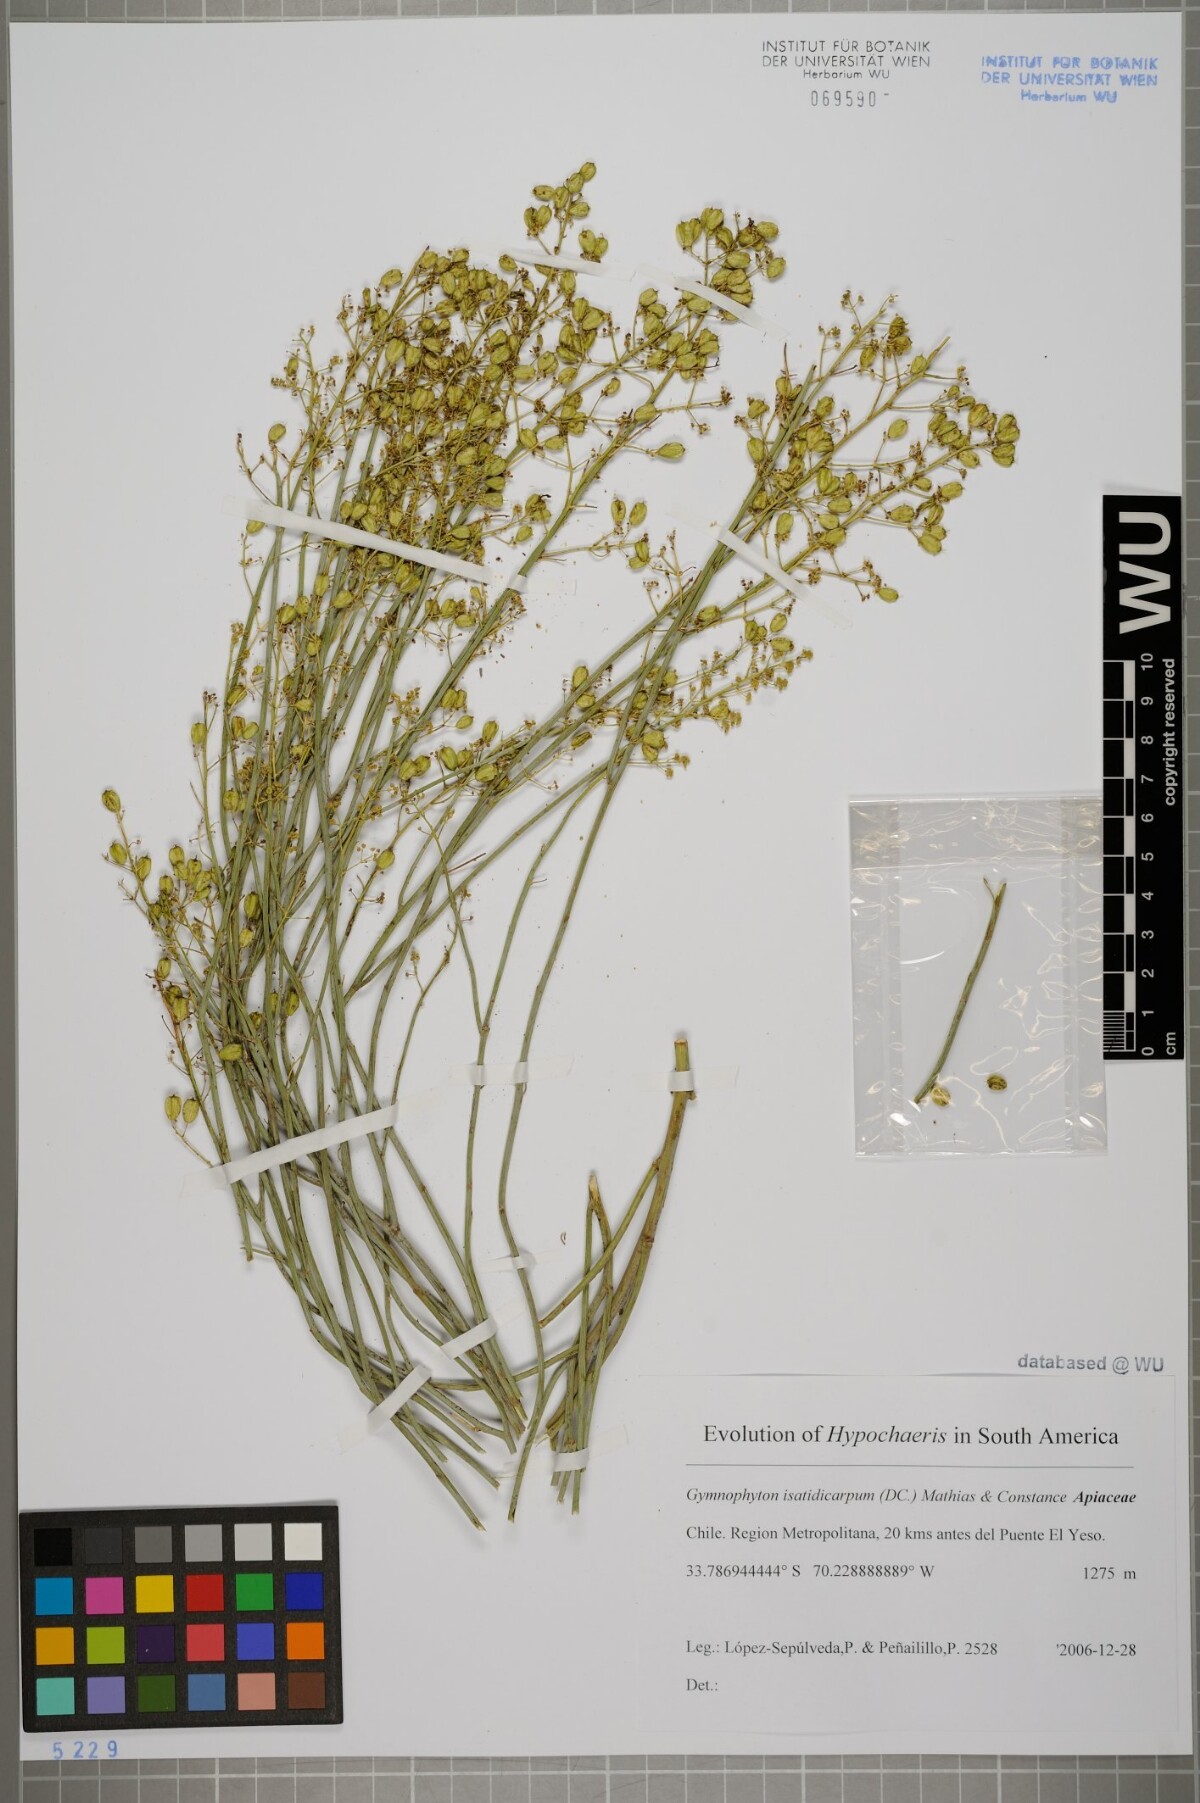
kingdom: Plantae
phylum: Tracheophyta
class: Magnoliopsida
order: Apiales
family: Apiaceae
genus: Gymnophyton
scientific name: Gymnophyton isatidicarpum
